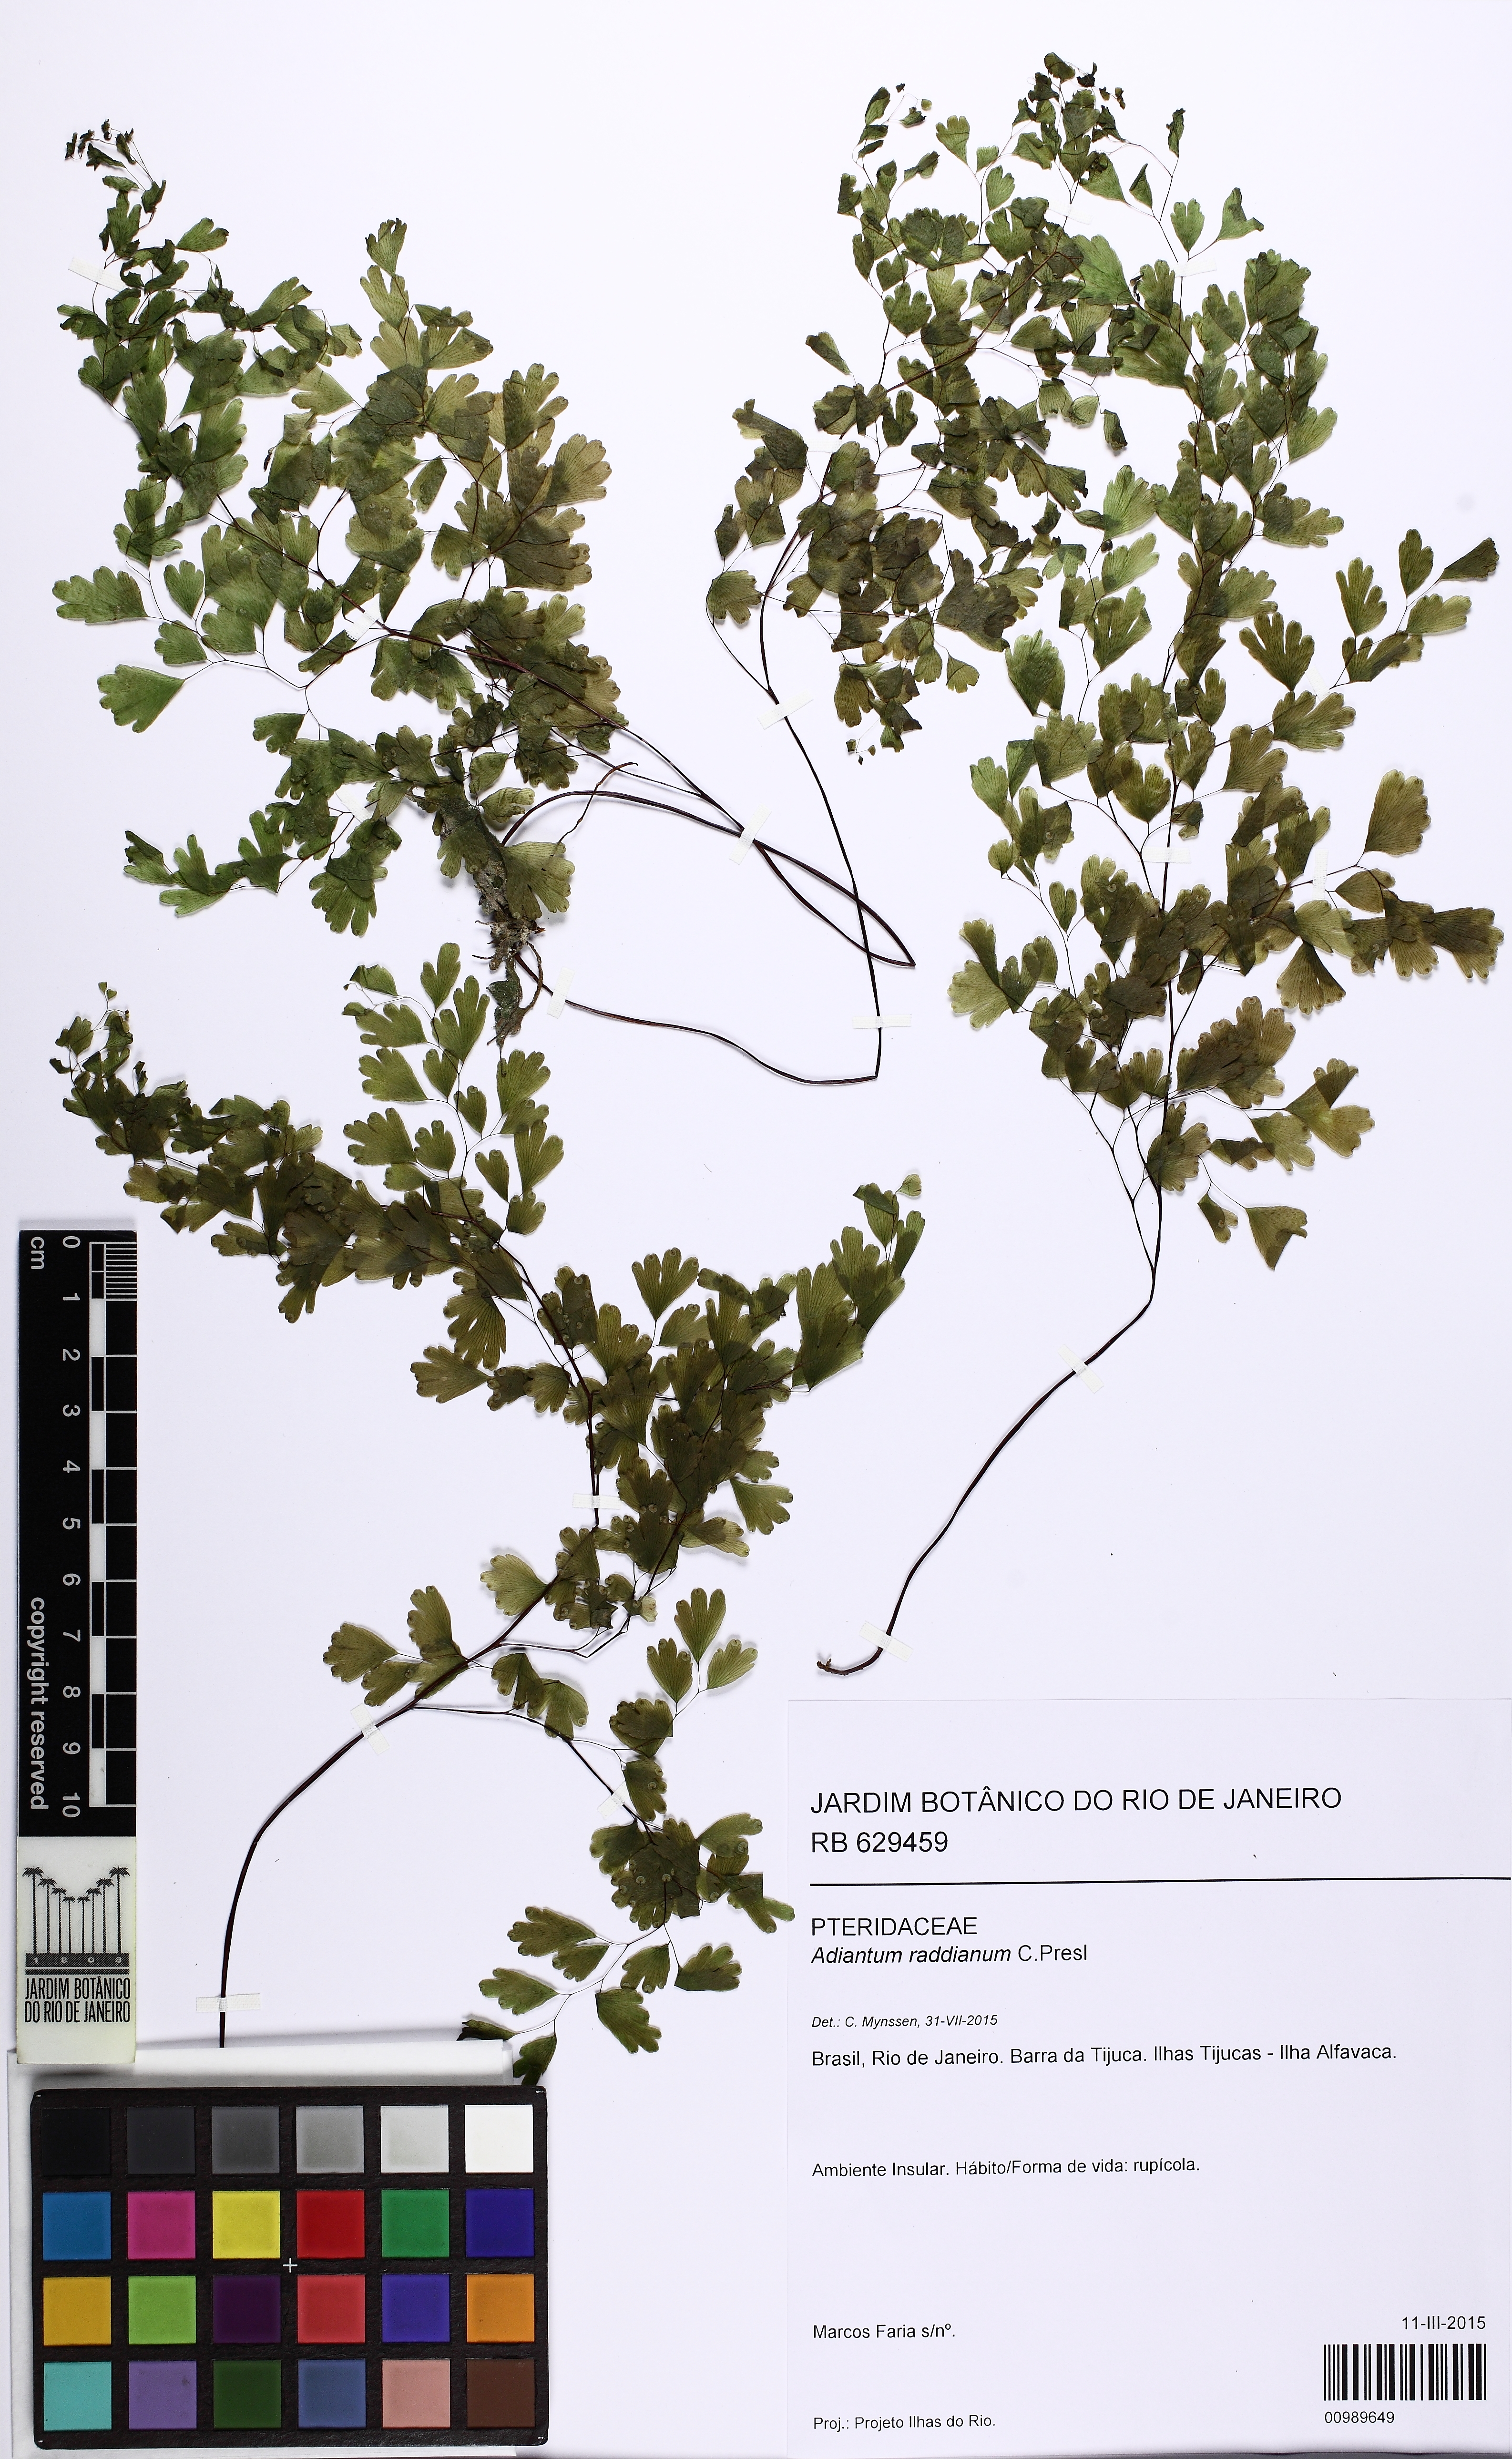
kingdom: Plantae
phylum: Tracheophyta
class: Polypodiopsida
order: Polypodiales
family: Pteridaceae
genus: Adiantum
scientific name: Adiantum raddianum
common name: Delta maidenhair fern
